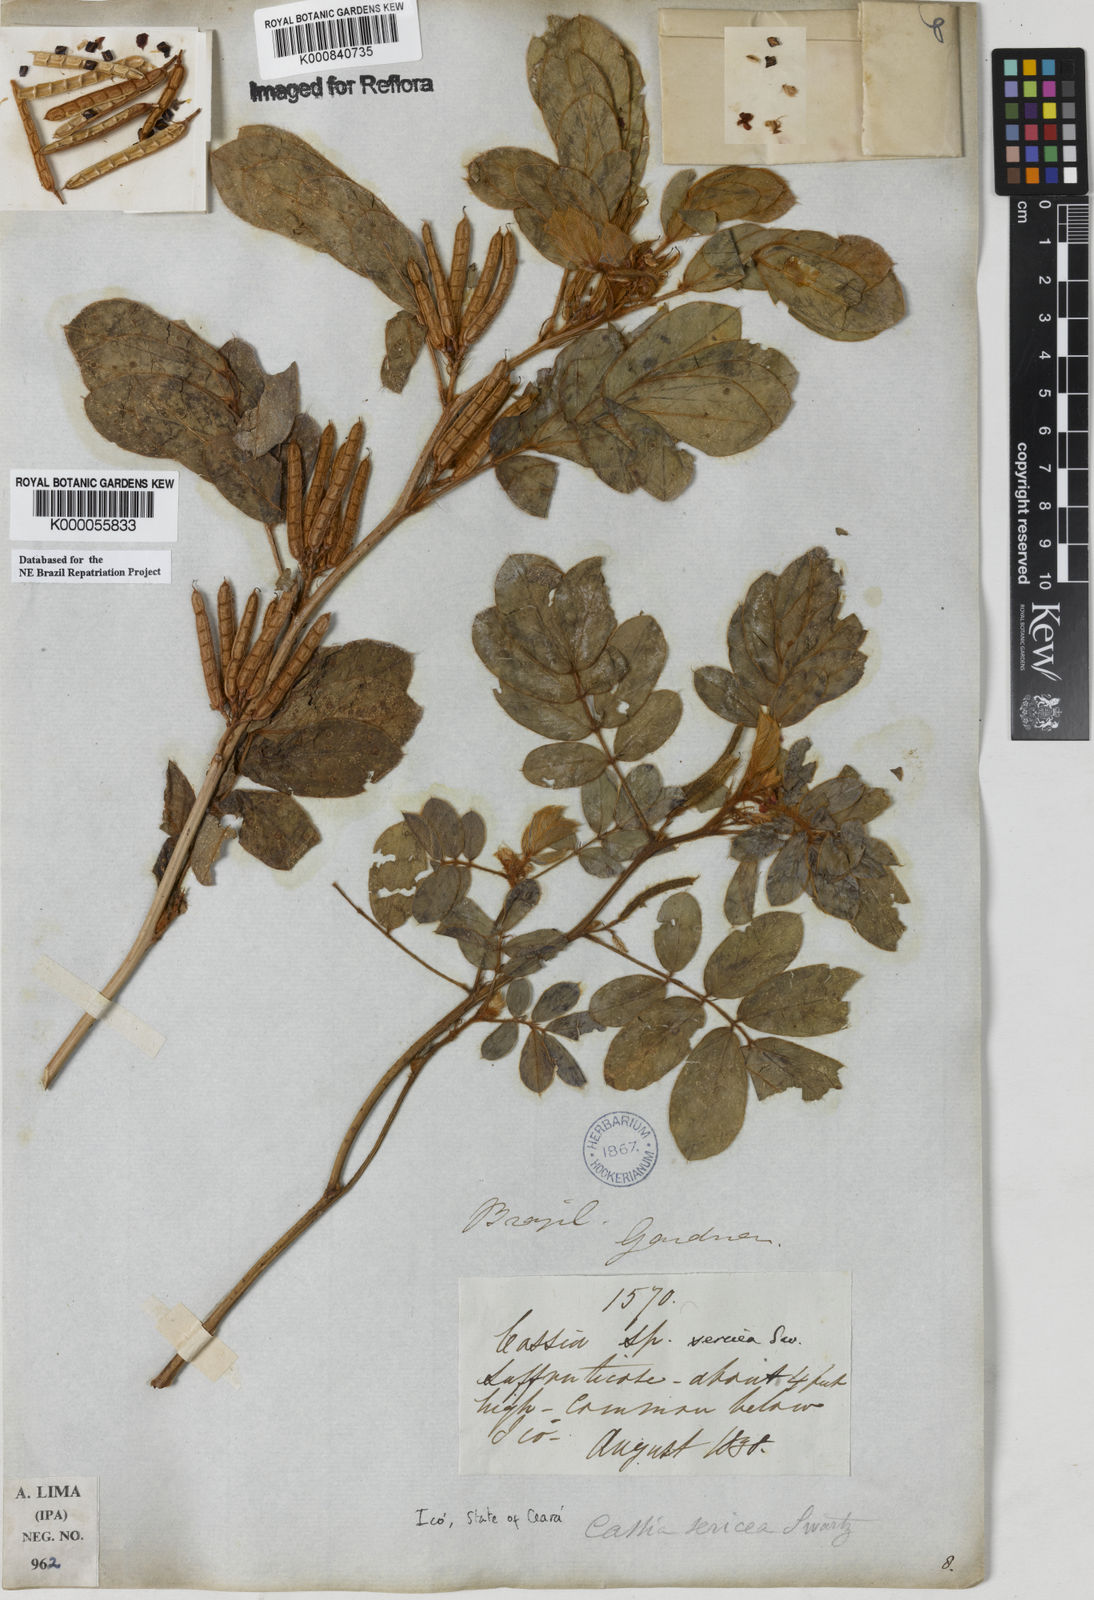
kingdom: Plantae
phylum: Tracheophyta
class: Magnoliopsida
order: Fabales
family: Fabaceae
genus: Senna
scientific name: Senna uniflora
